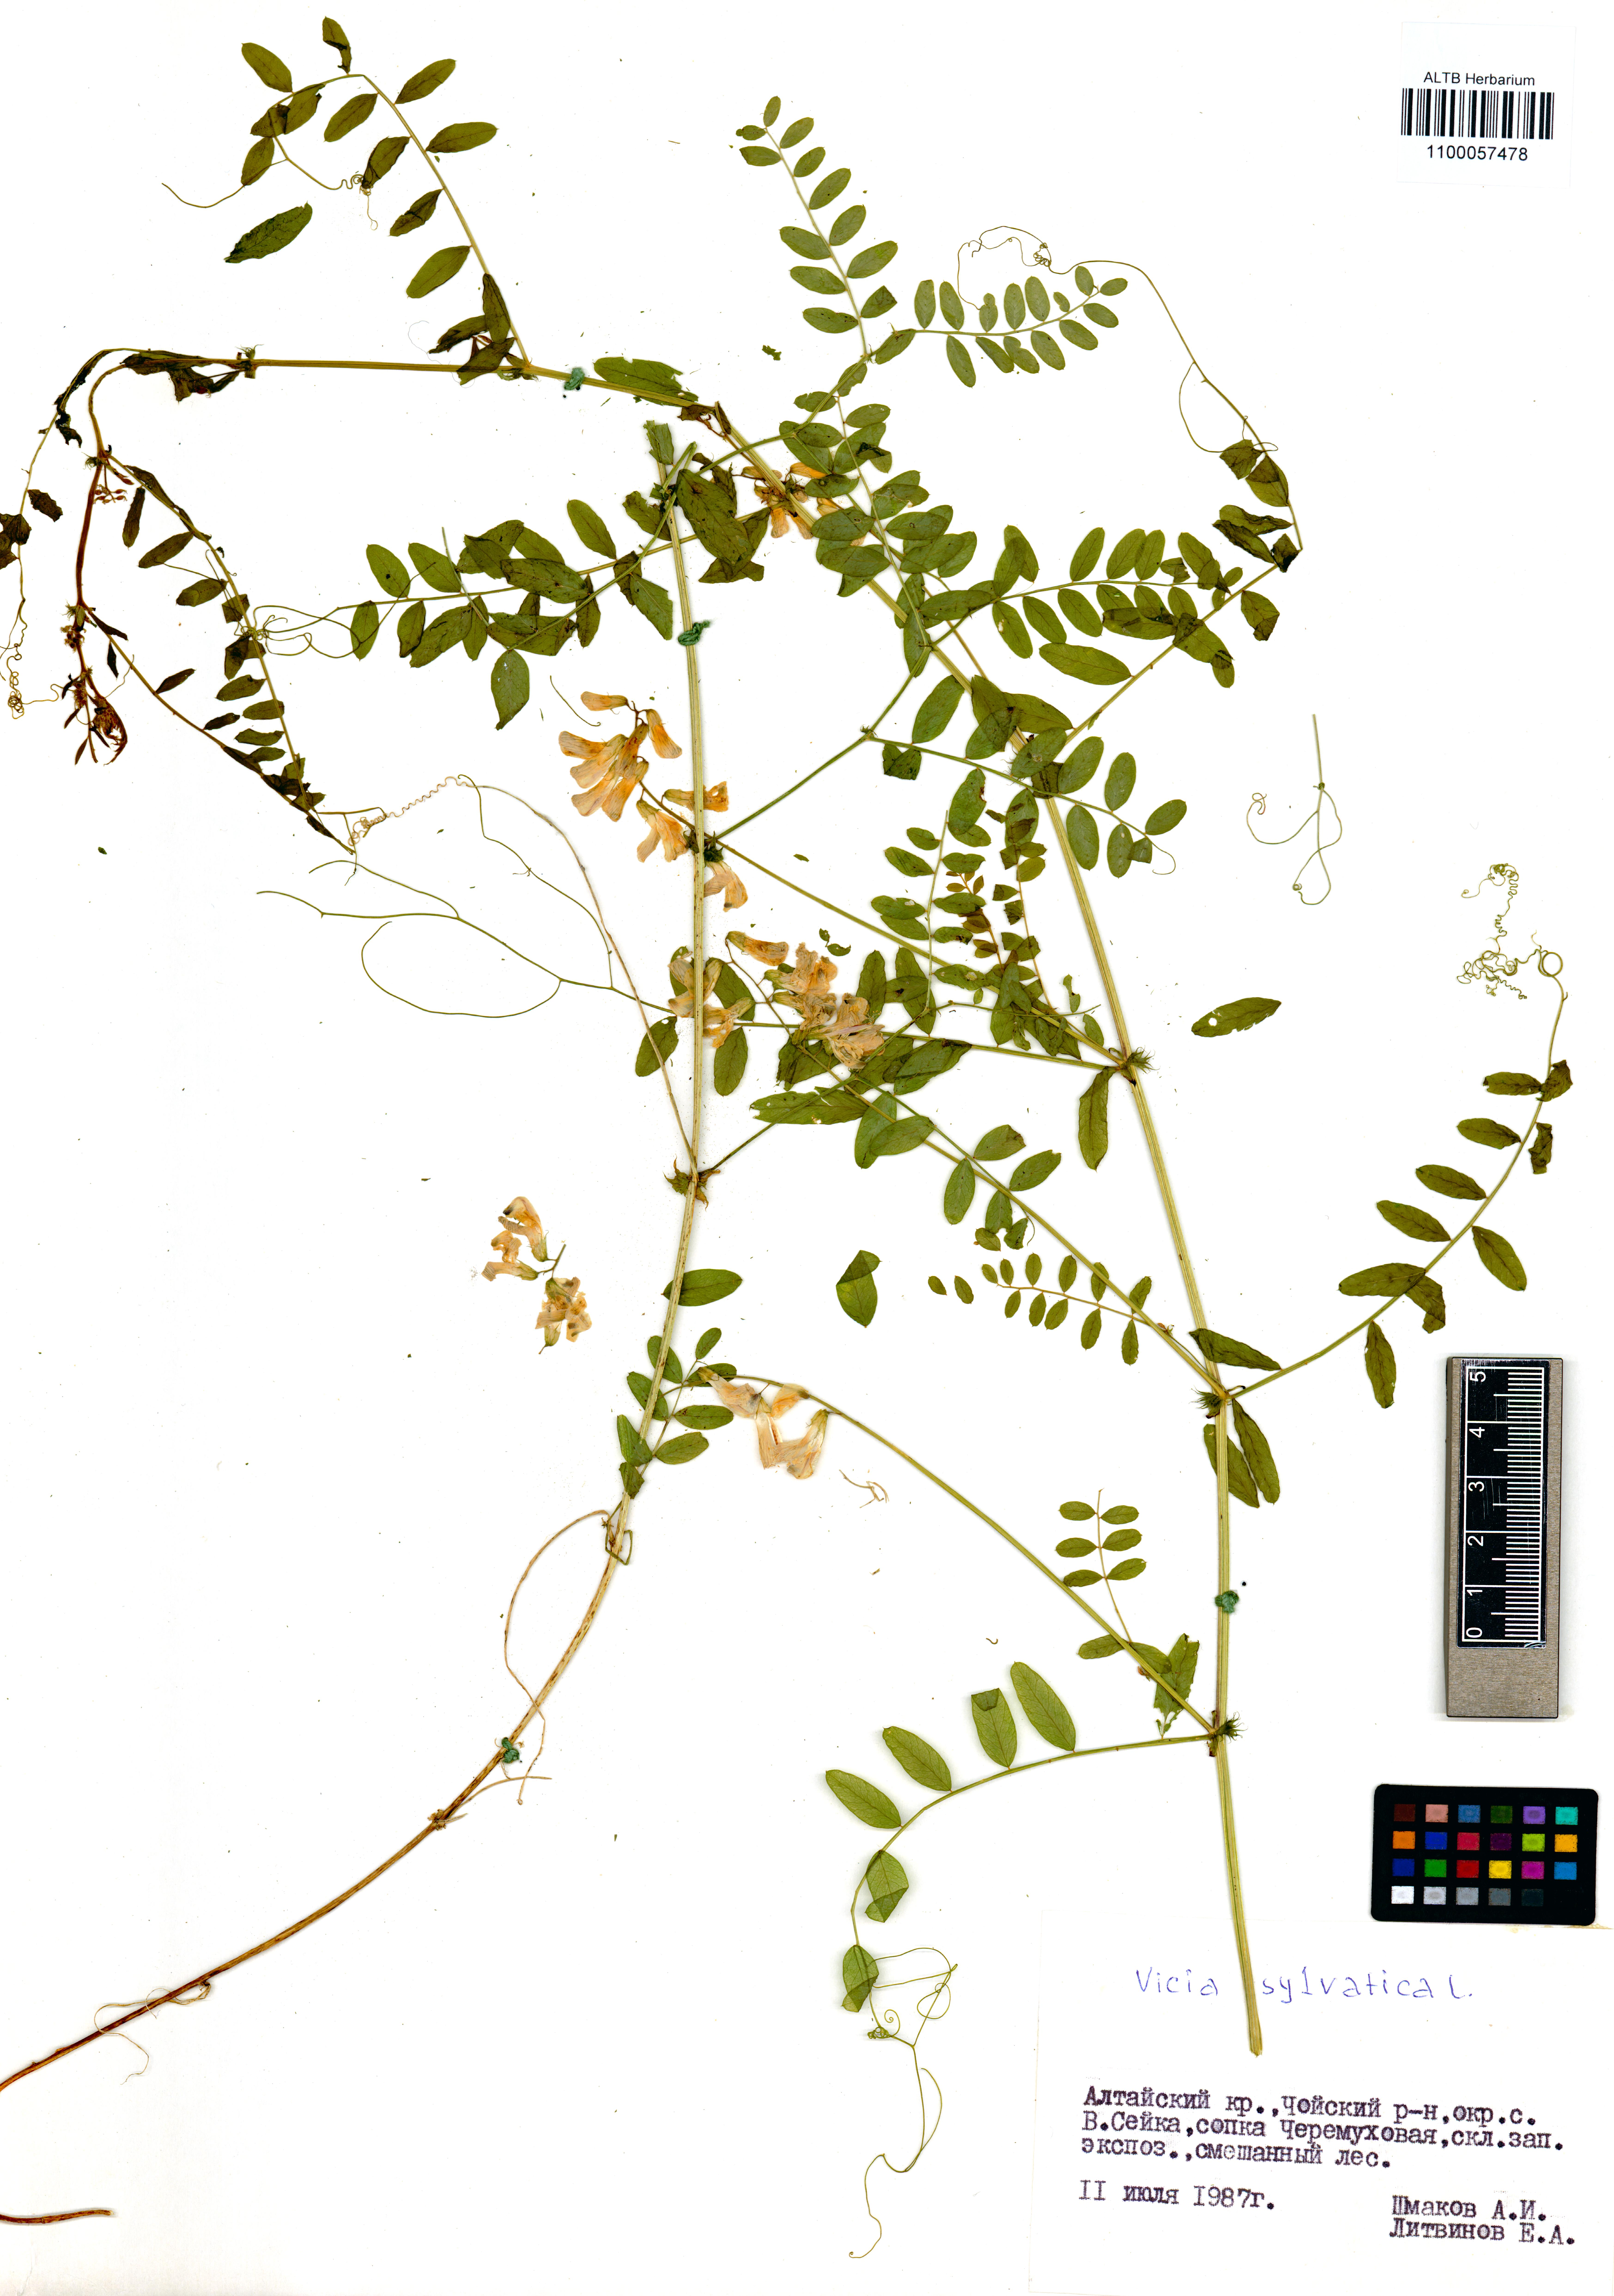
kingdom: Plantae
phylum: Tracheophyta
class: Magnoliopsida
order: Fabales
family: Fabaceae
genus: Vicia
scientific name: Vicia sylvatica
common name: Wood vetch
